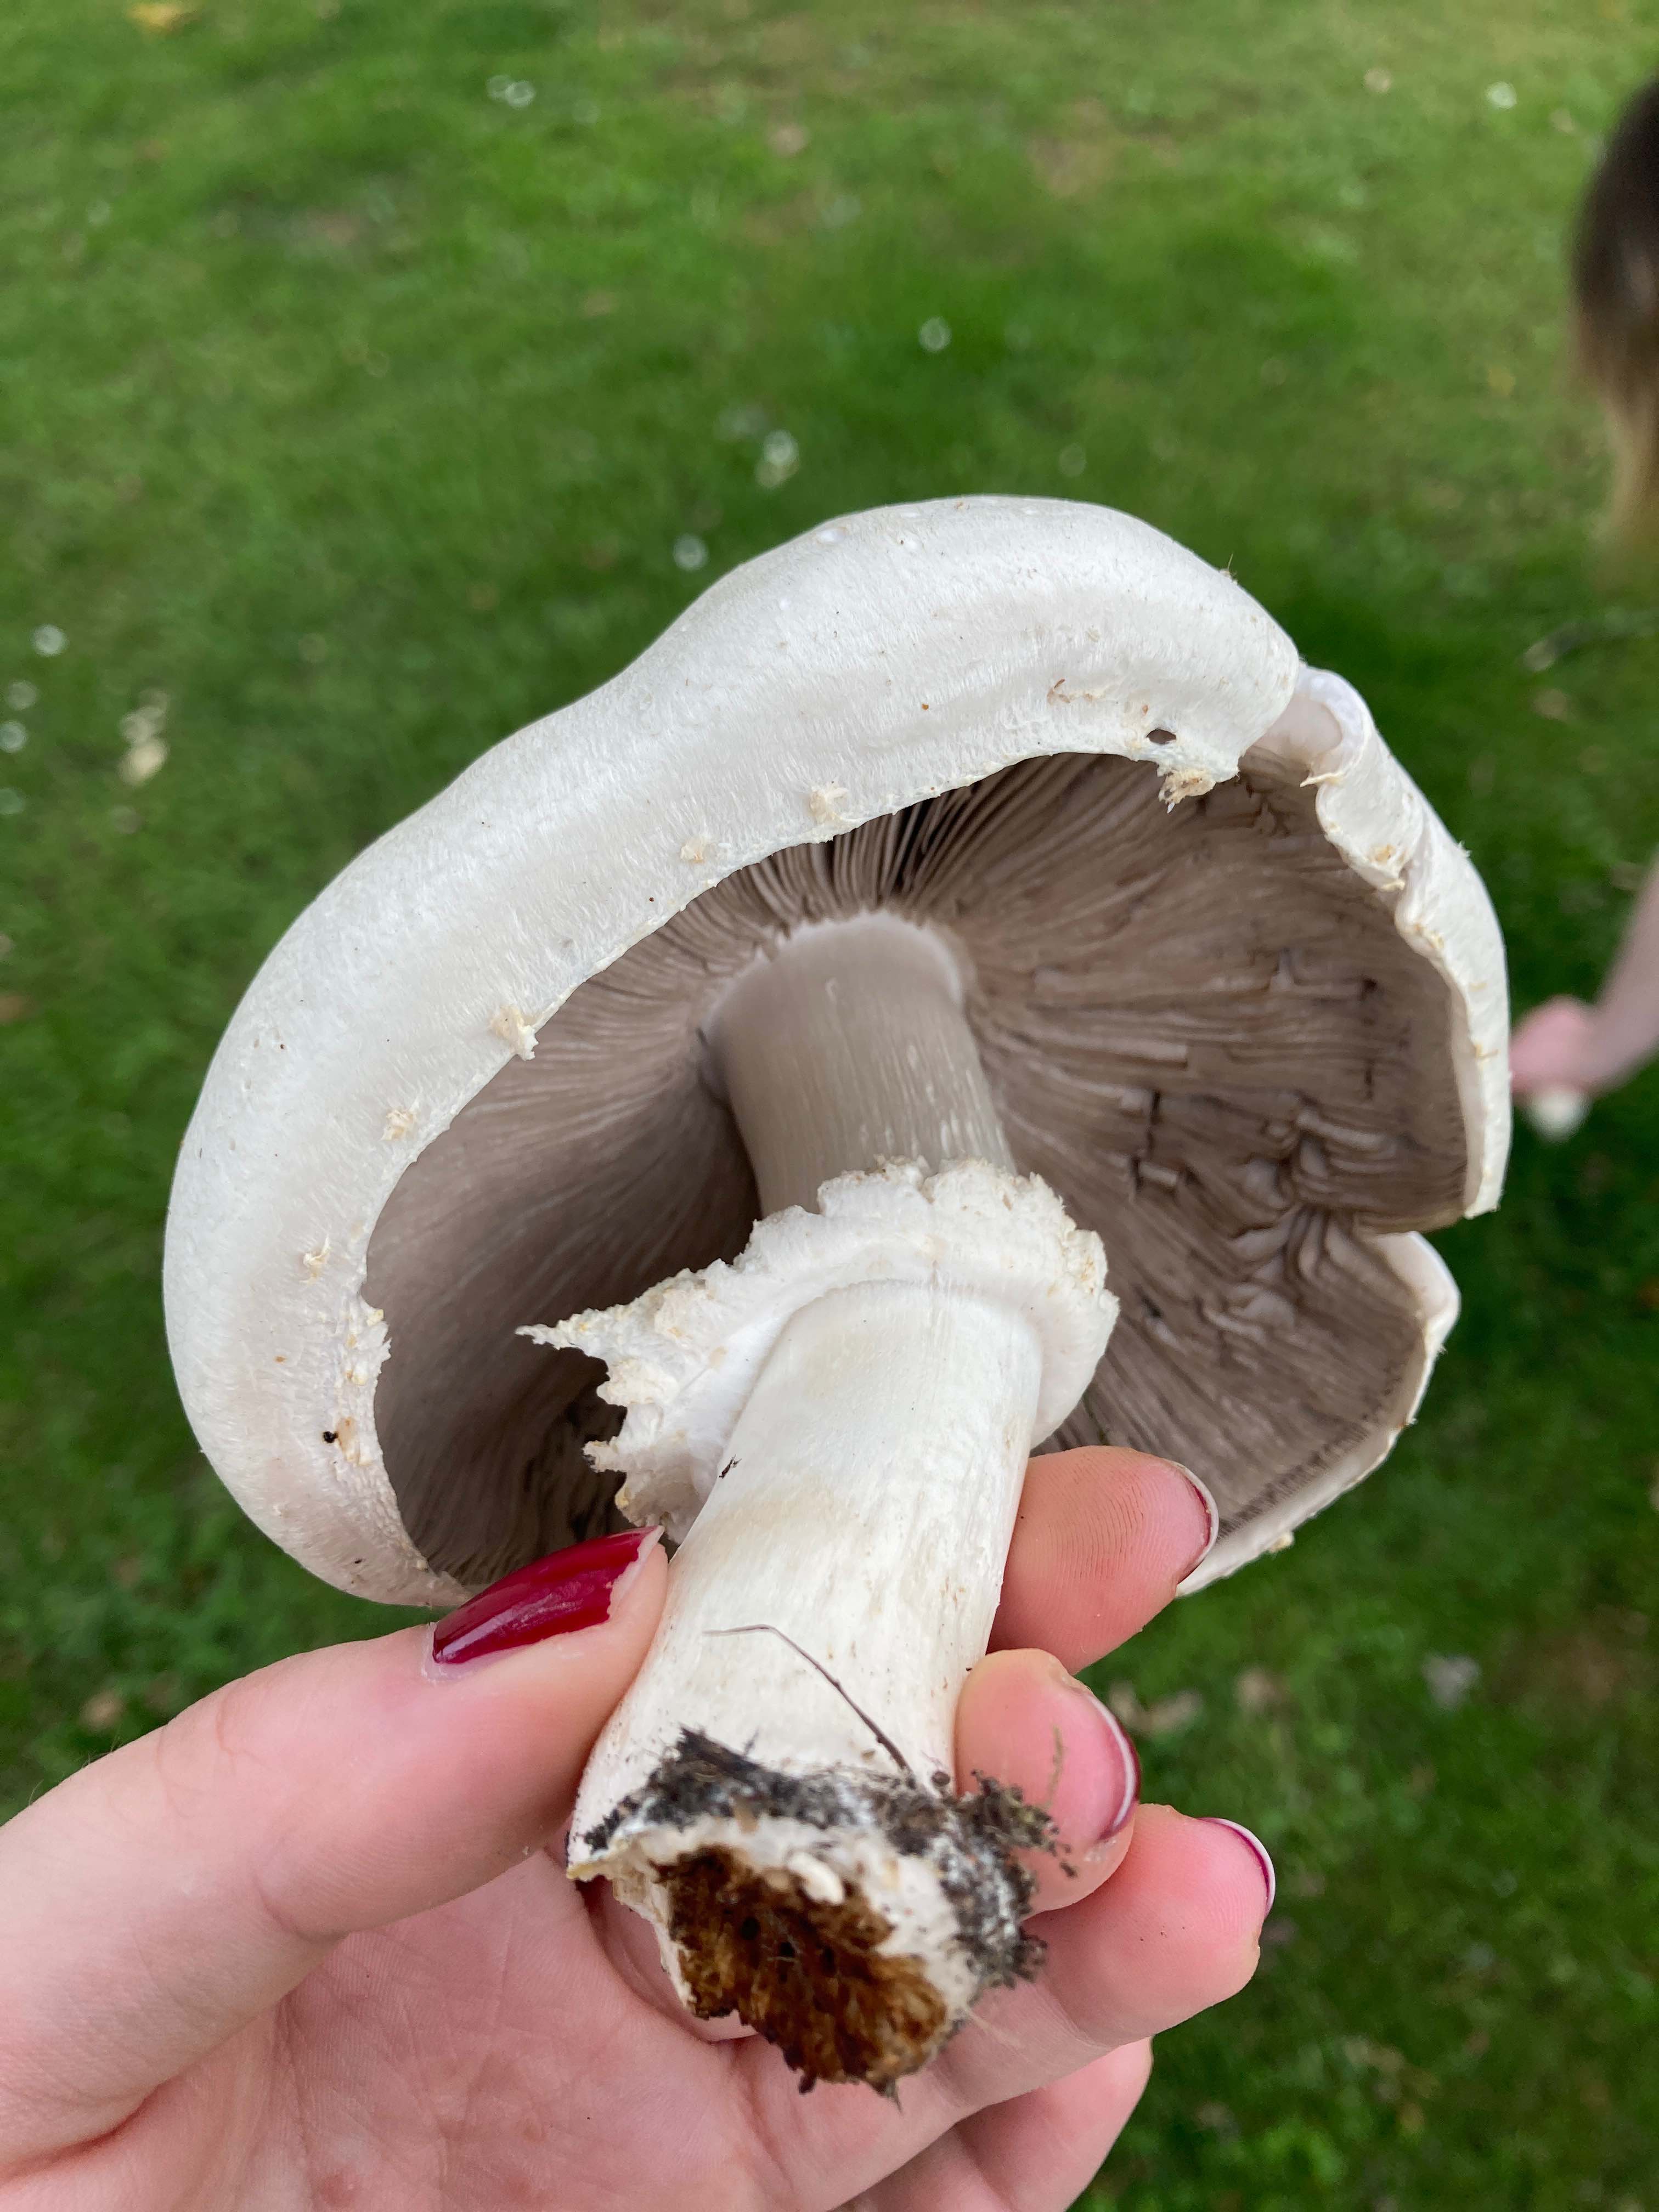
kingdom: Fungi
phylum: Basidiomycota
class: Agaricomycetes
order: Agaricales
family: Agaricaceae
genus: Agaricus
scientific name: Agaricus
